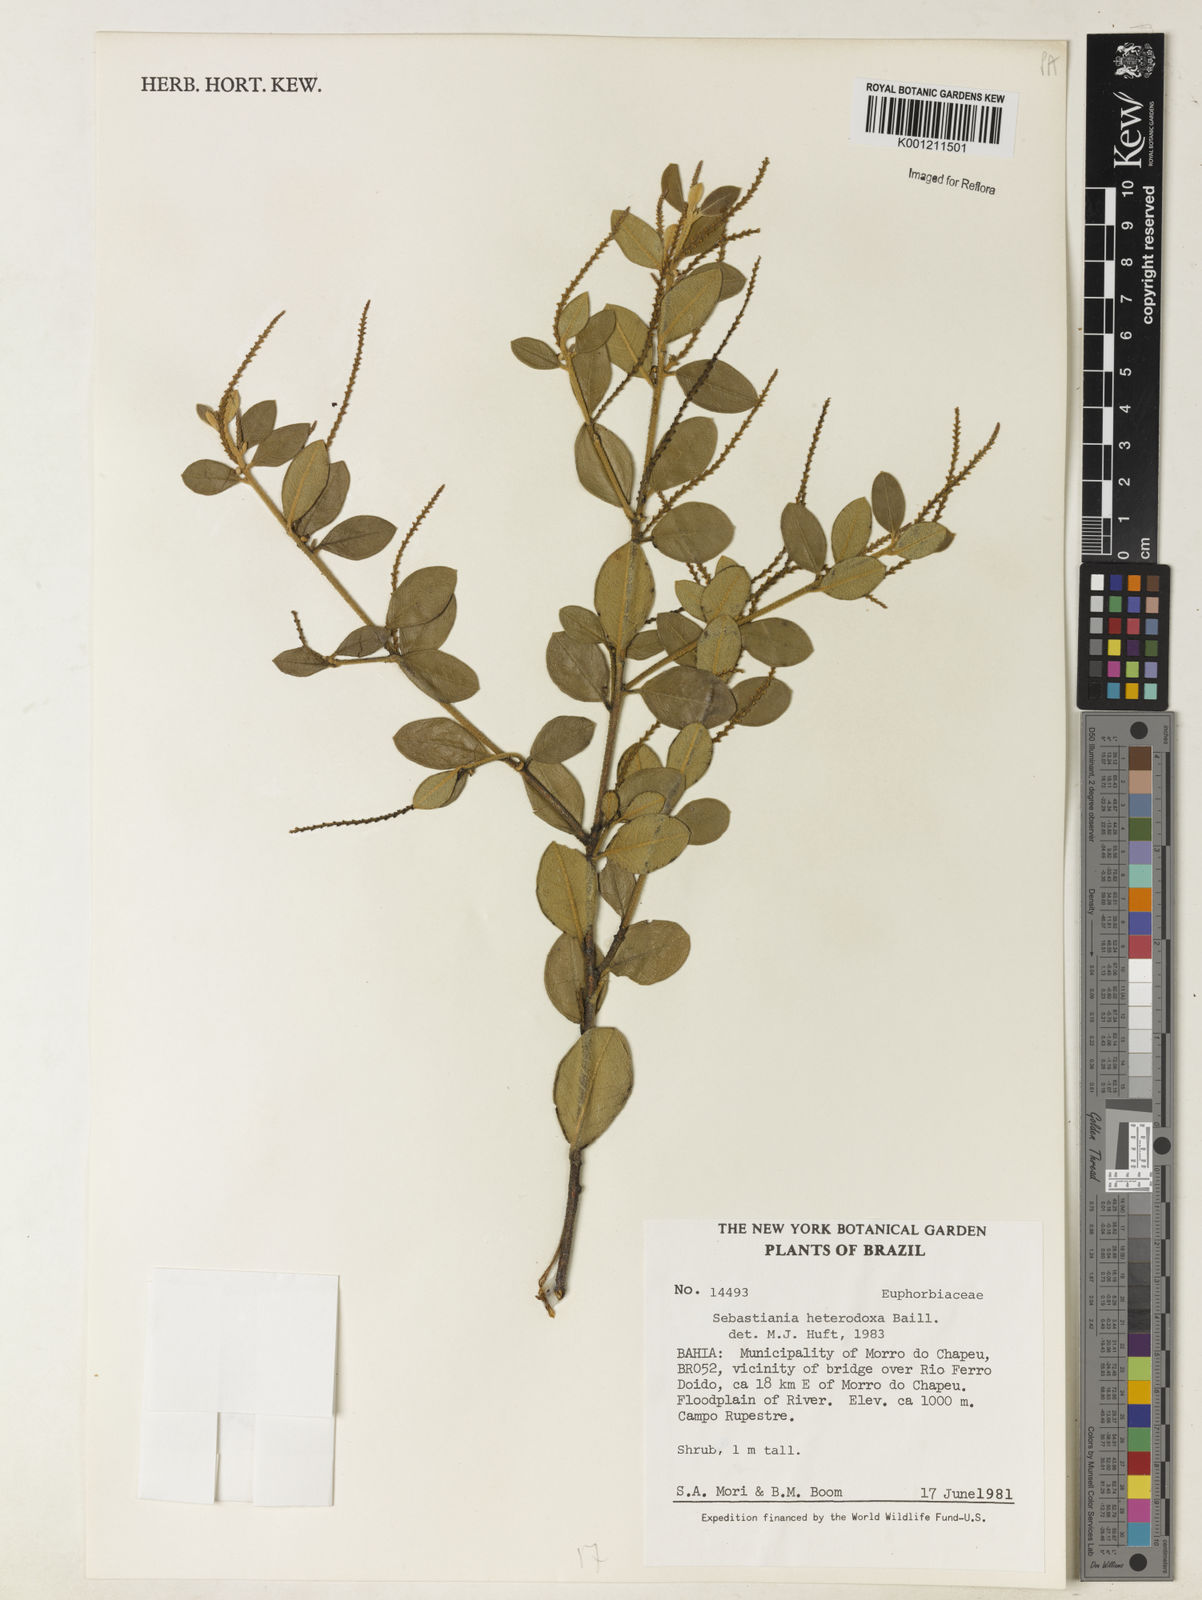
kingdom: Plantae
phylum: Tracheophyta
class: Magnoliopsida
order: Malpighiales
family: Euphorbiaceae
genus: Microstachys
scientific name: Microstachys
